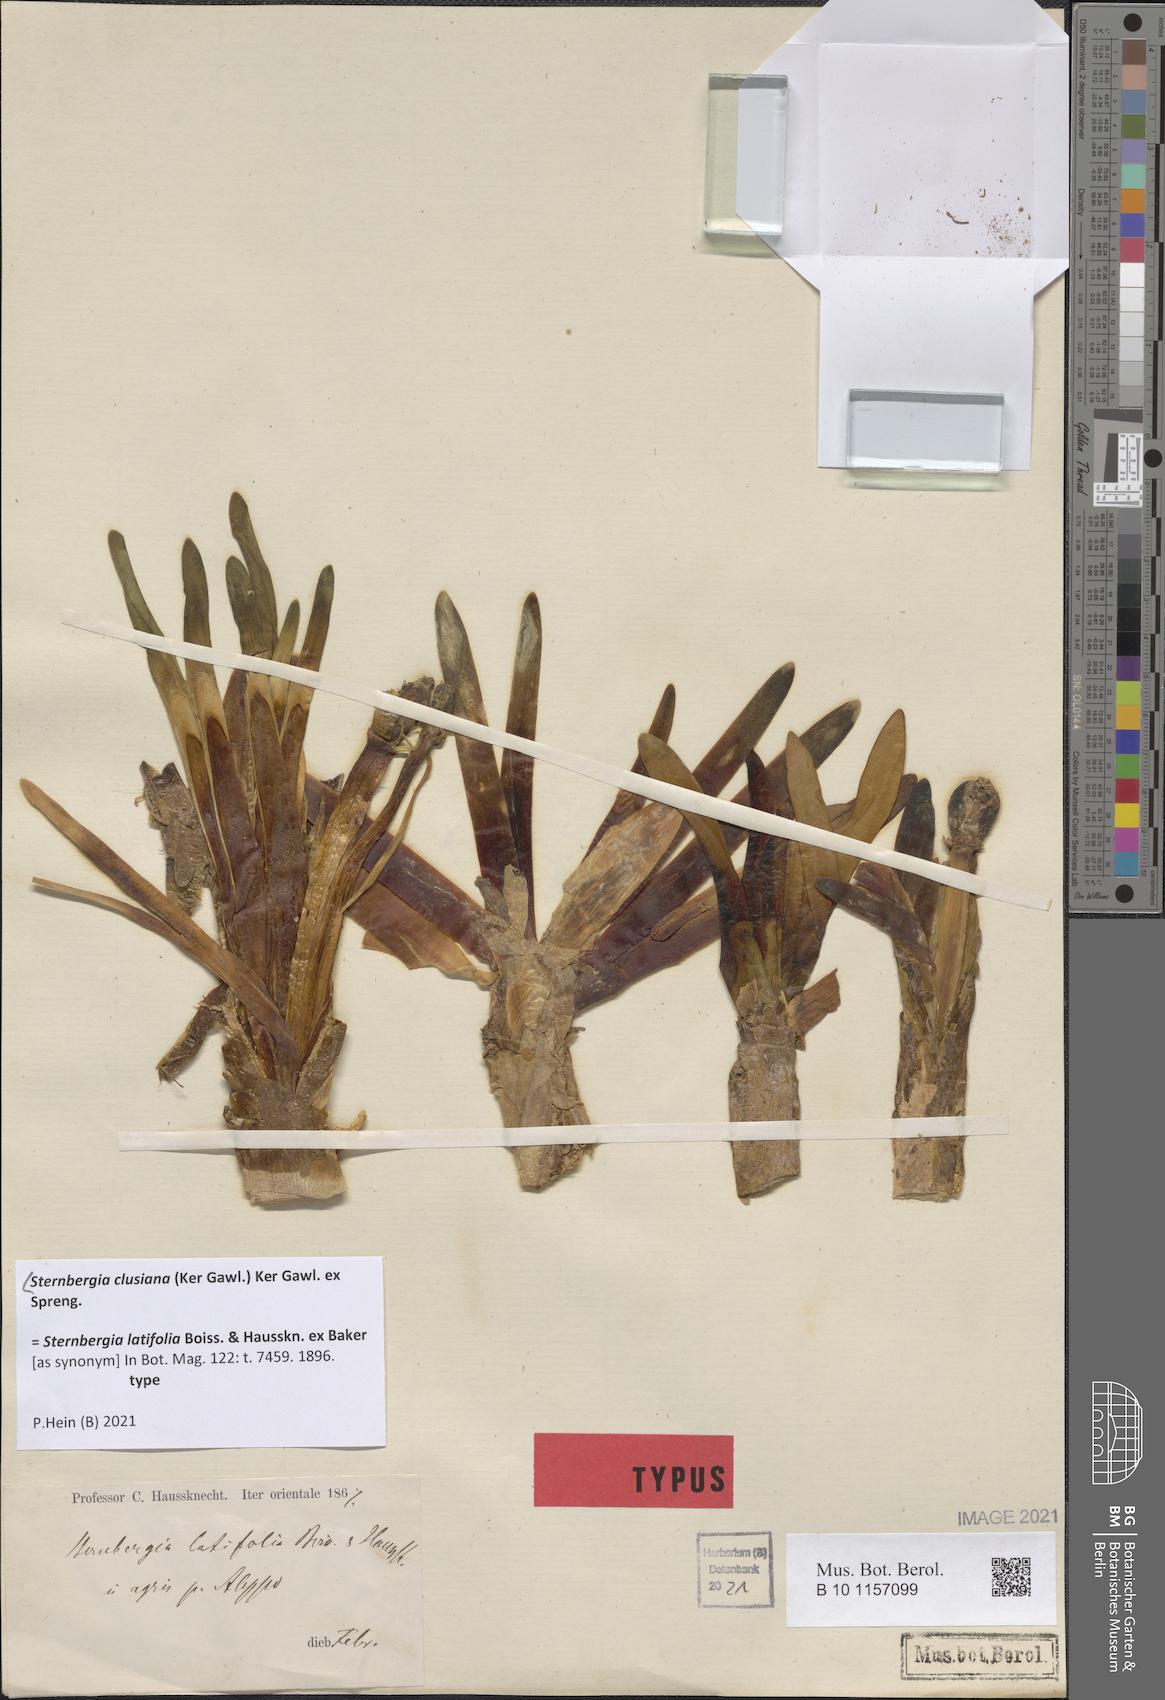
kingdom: Plantae
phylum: Tracheophyta
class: Liliopsida
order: Asparagales
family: Amaryllidaceae
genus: Sternbergia
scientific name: Sternbergia clusiana
